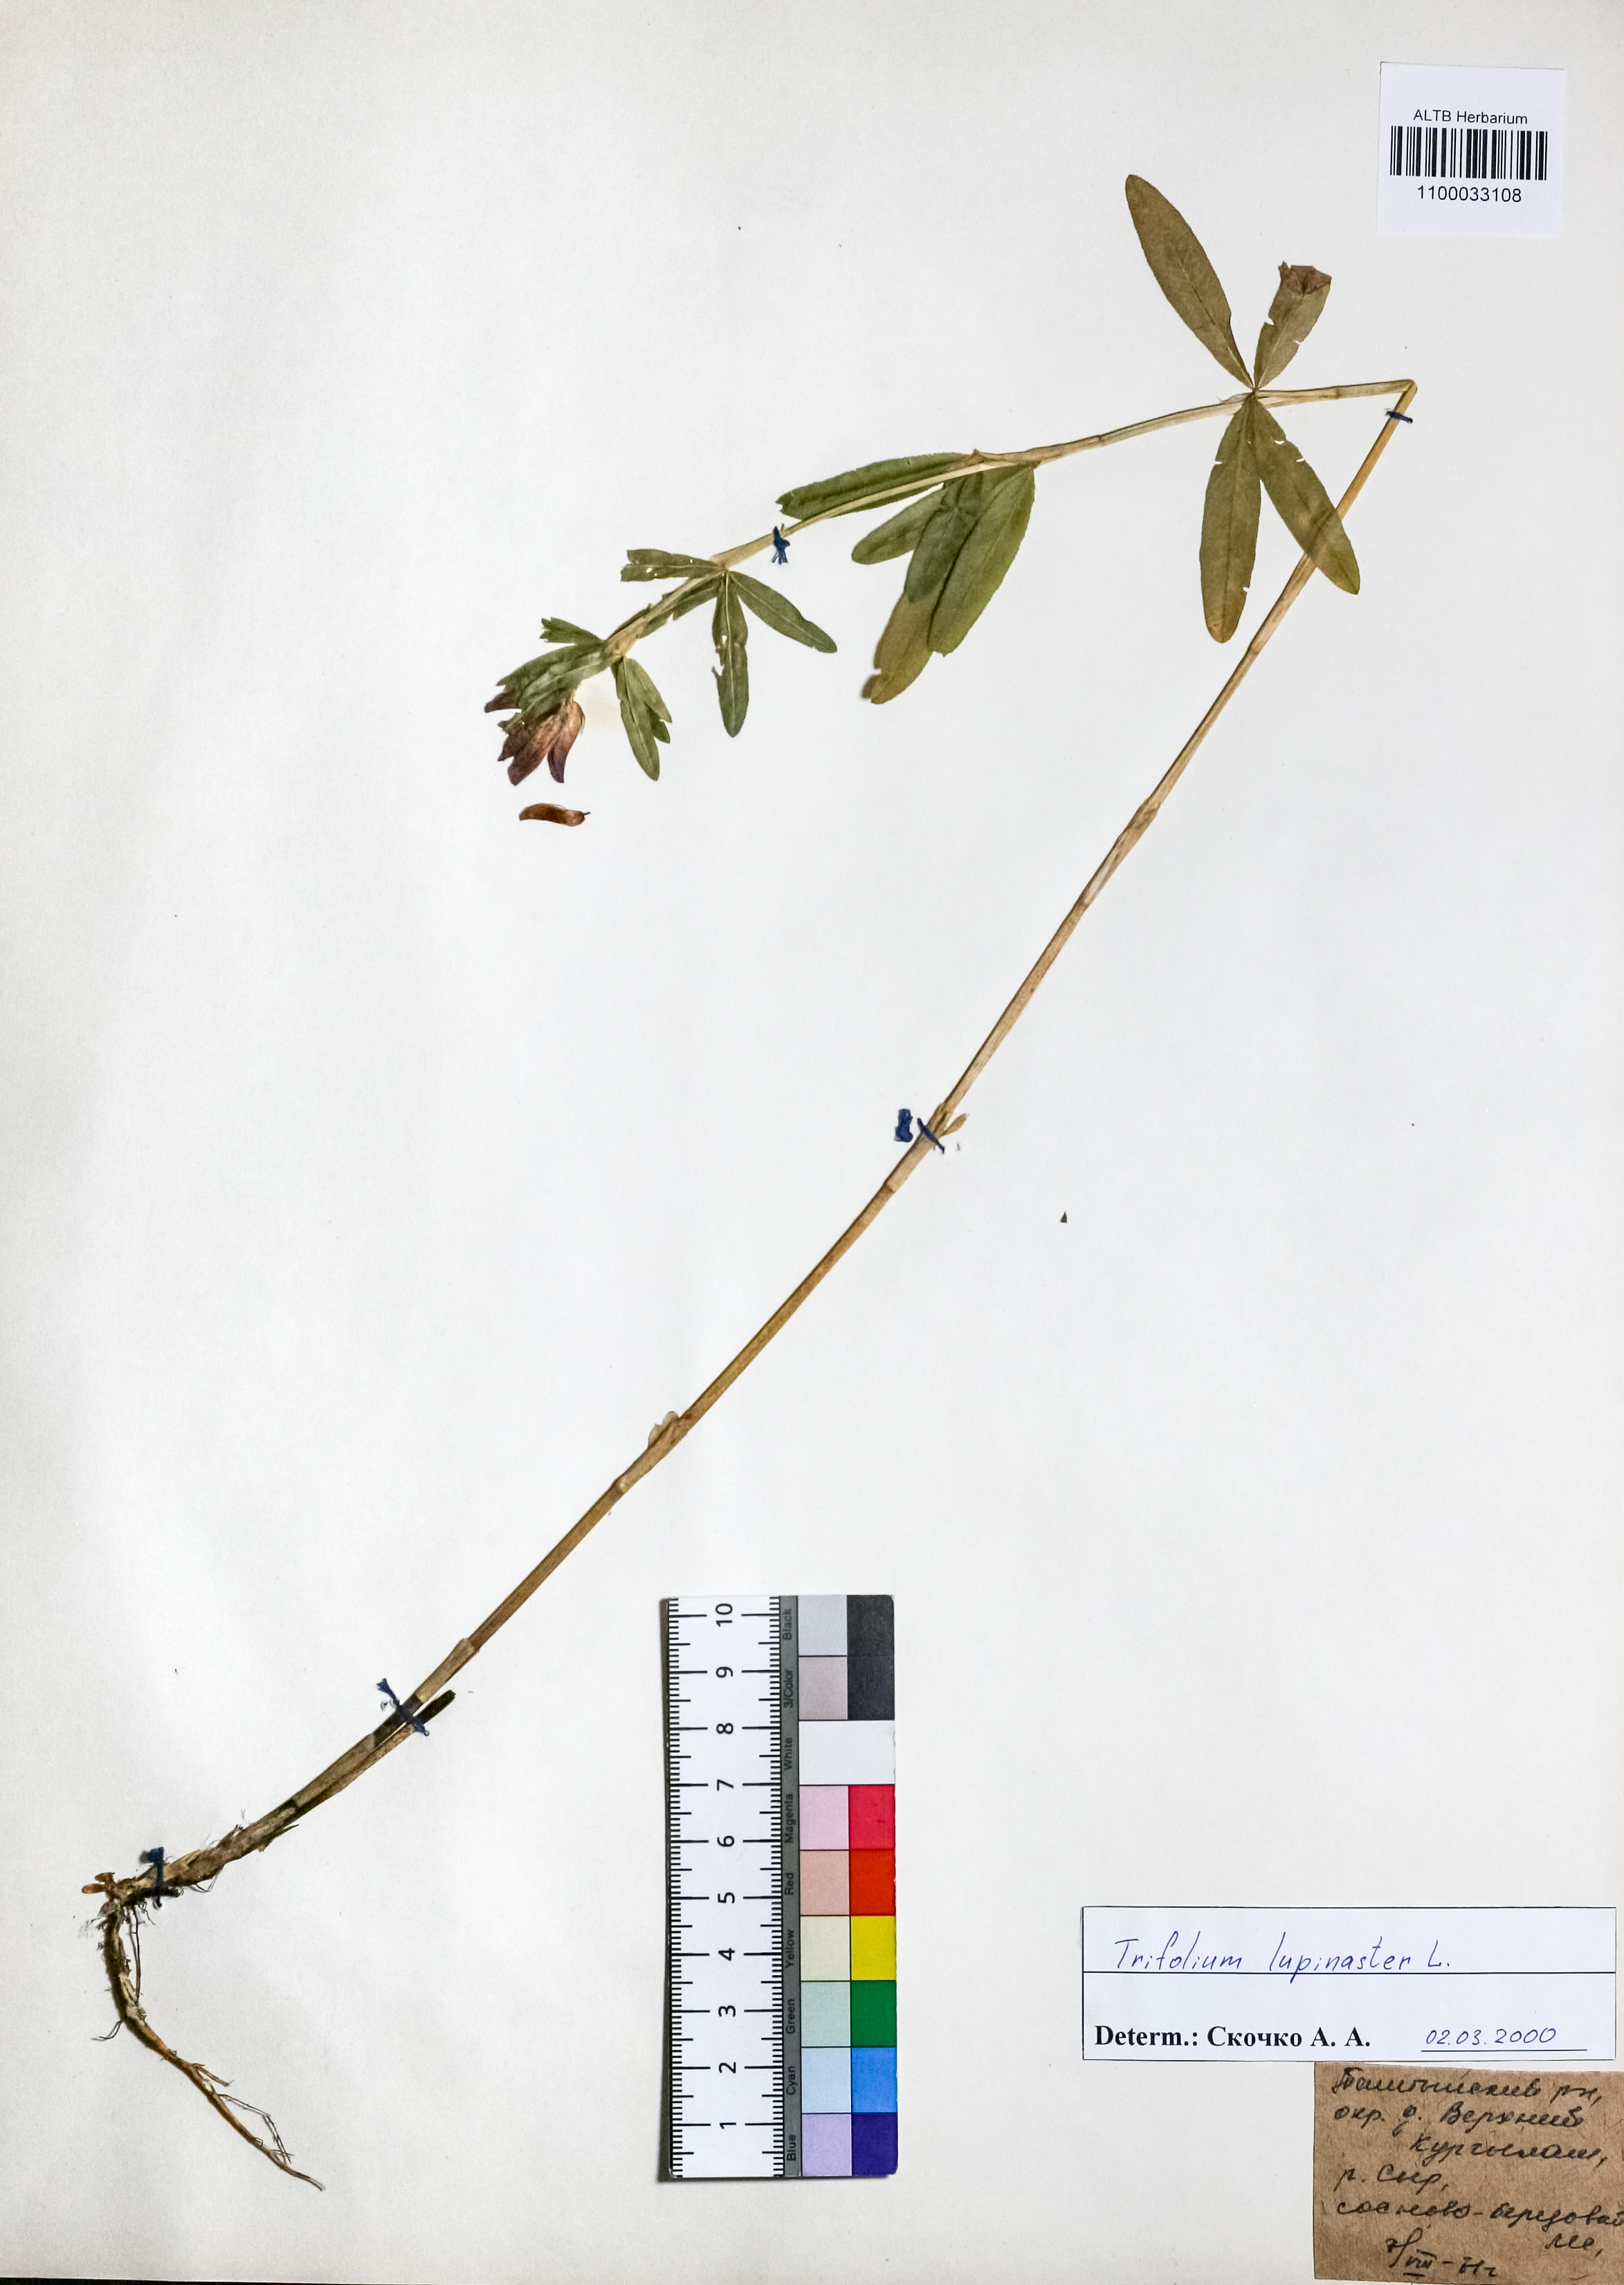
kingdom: Plantae
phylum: Tracheophyta
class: Magnoliopsida
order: Fabales
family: Fabaceae
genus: Trifolium
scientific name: Trifolium lupinaster
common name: Lupine clover
